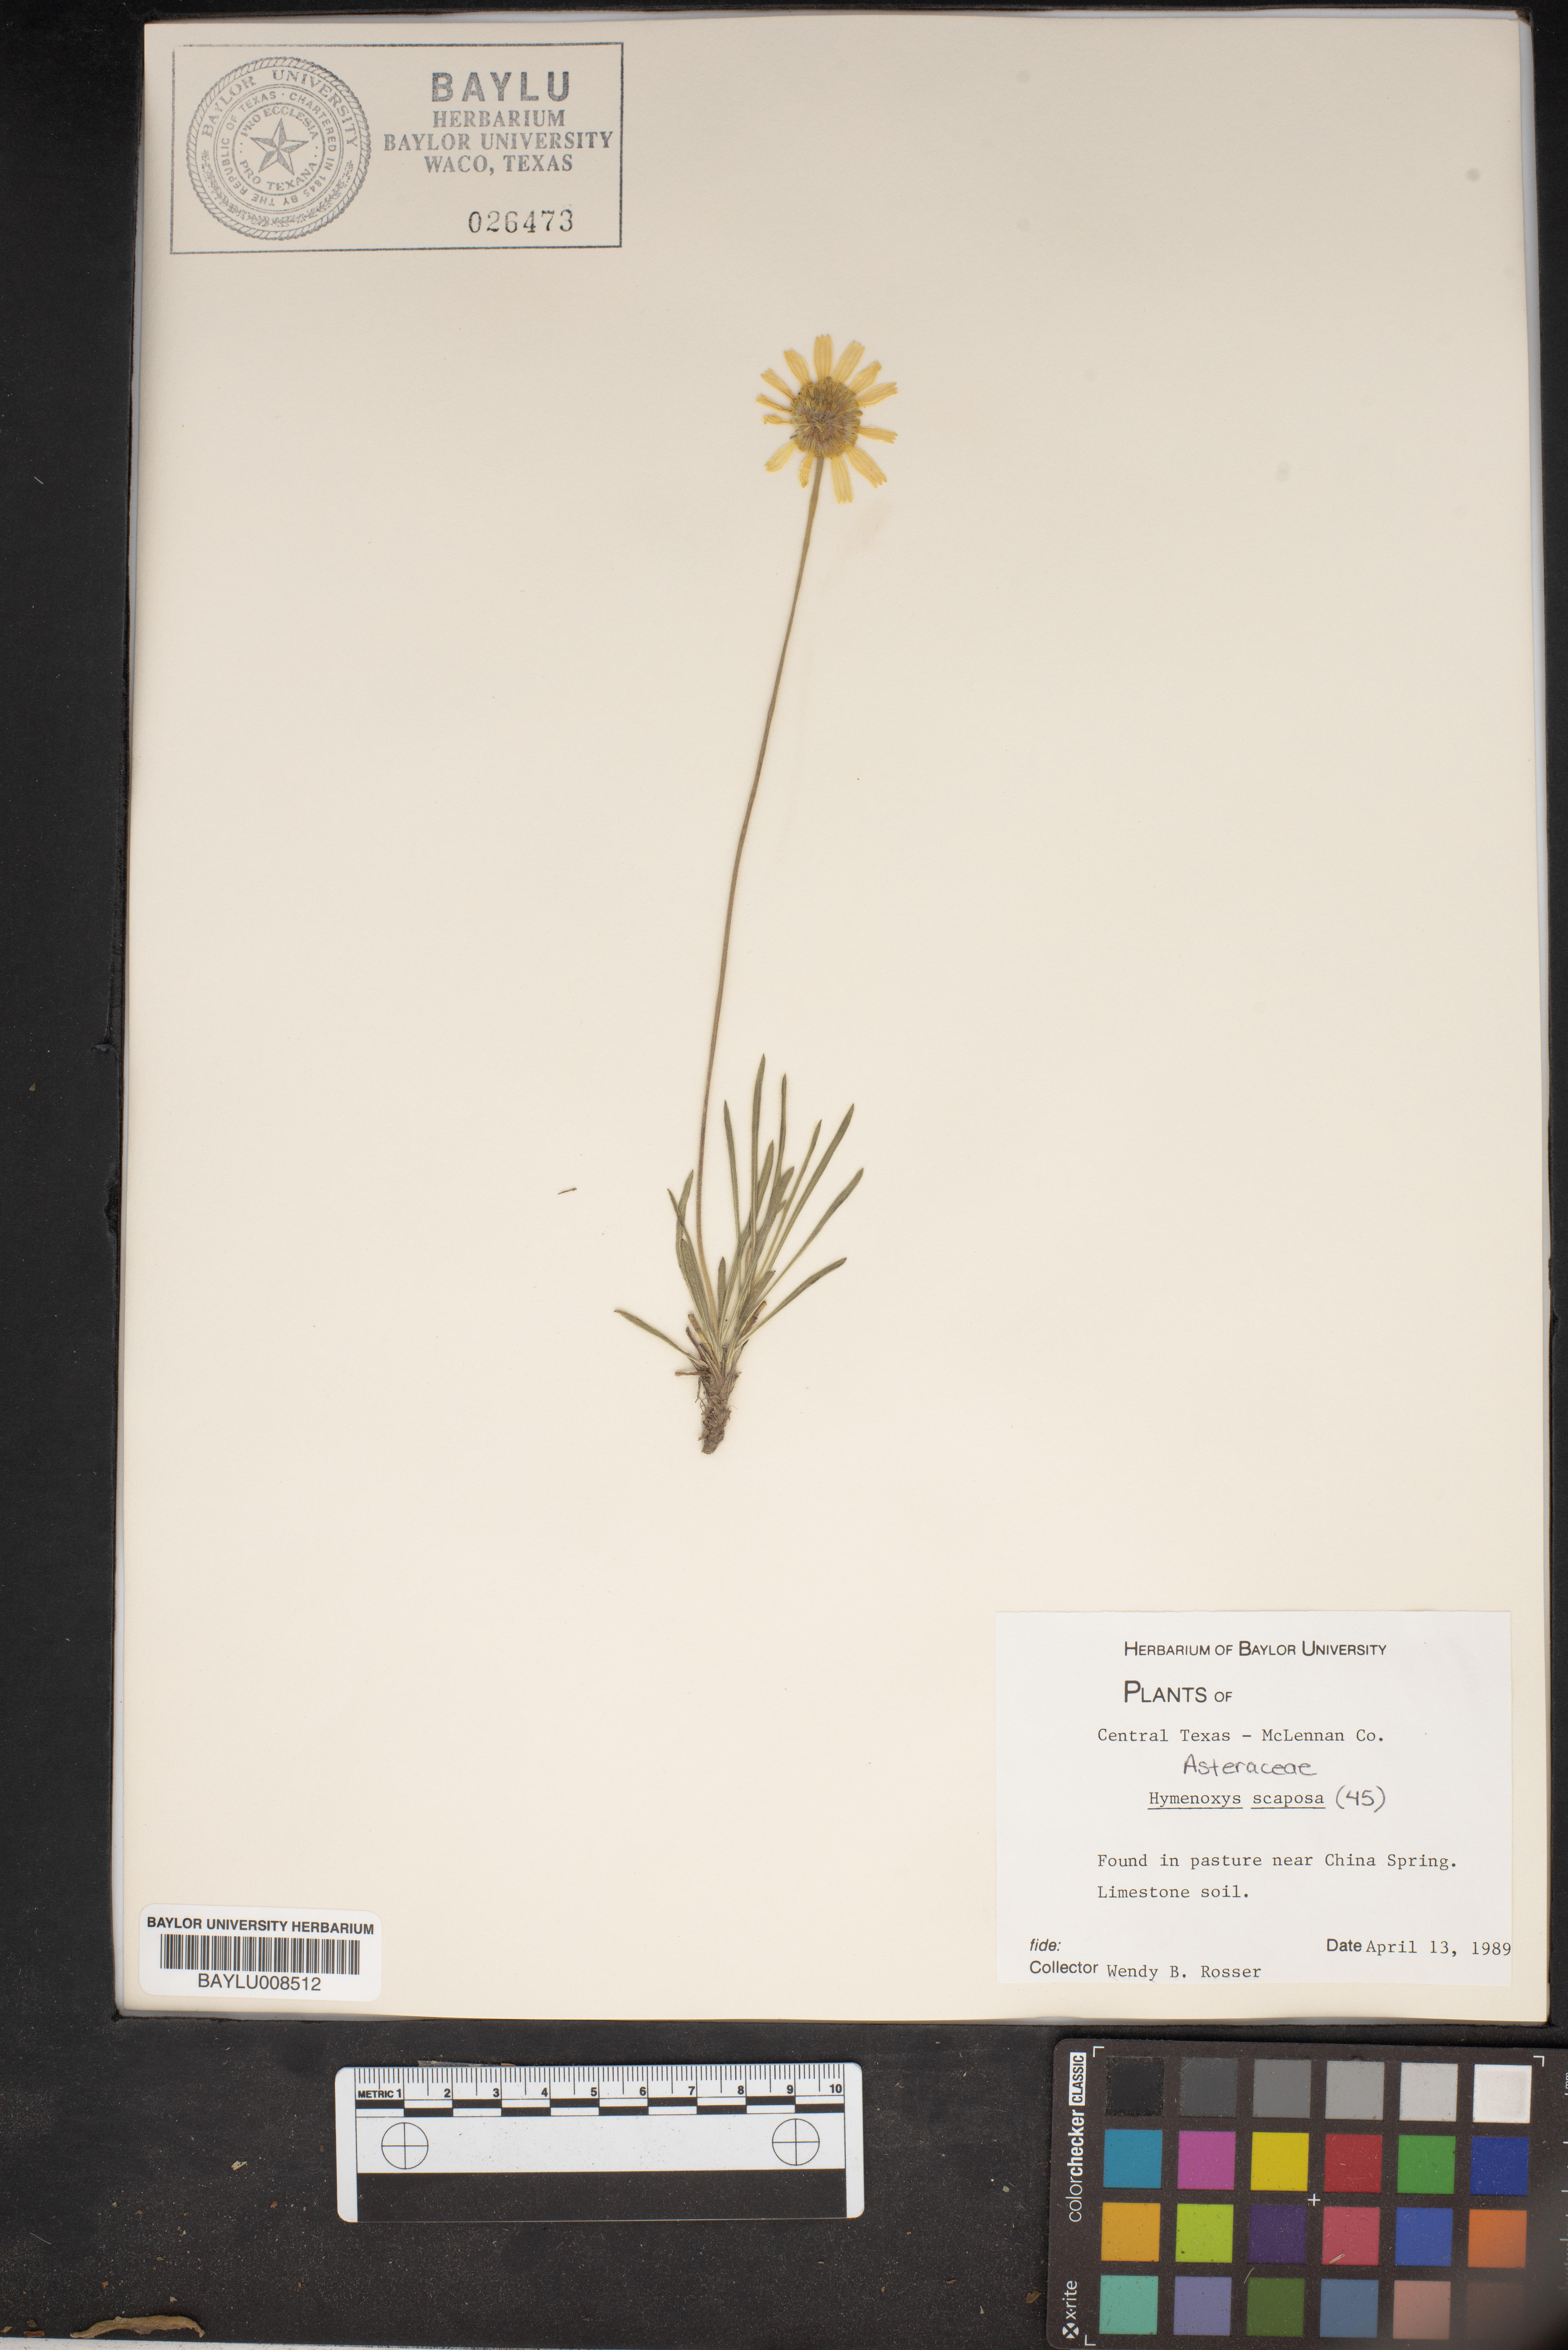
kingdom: Plantae
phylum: Tracheophyta
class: Magnoliopsida
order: Asterales
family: Asteraceae
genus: Tetraneuris
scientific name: Tetraneuris scaposa
